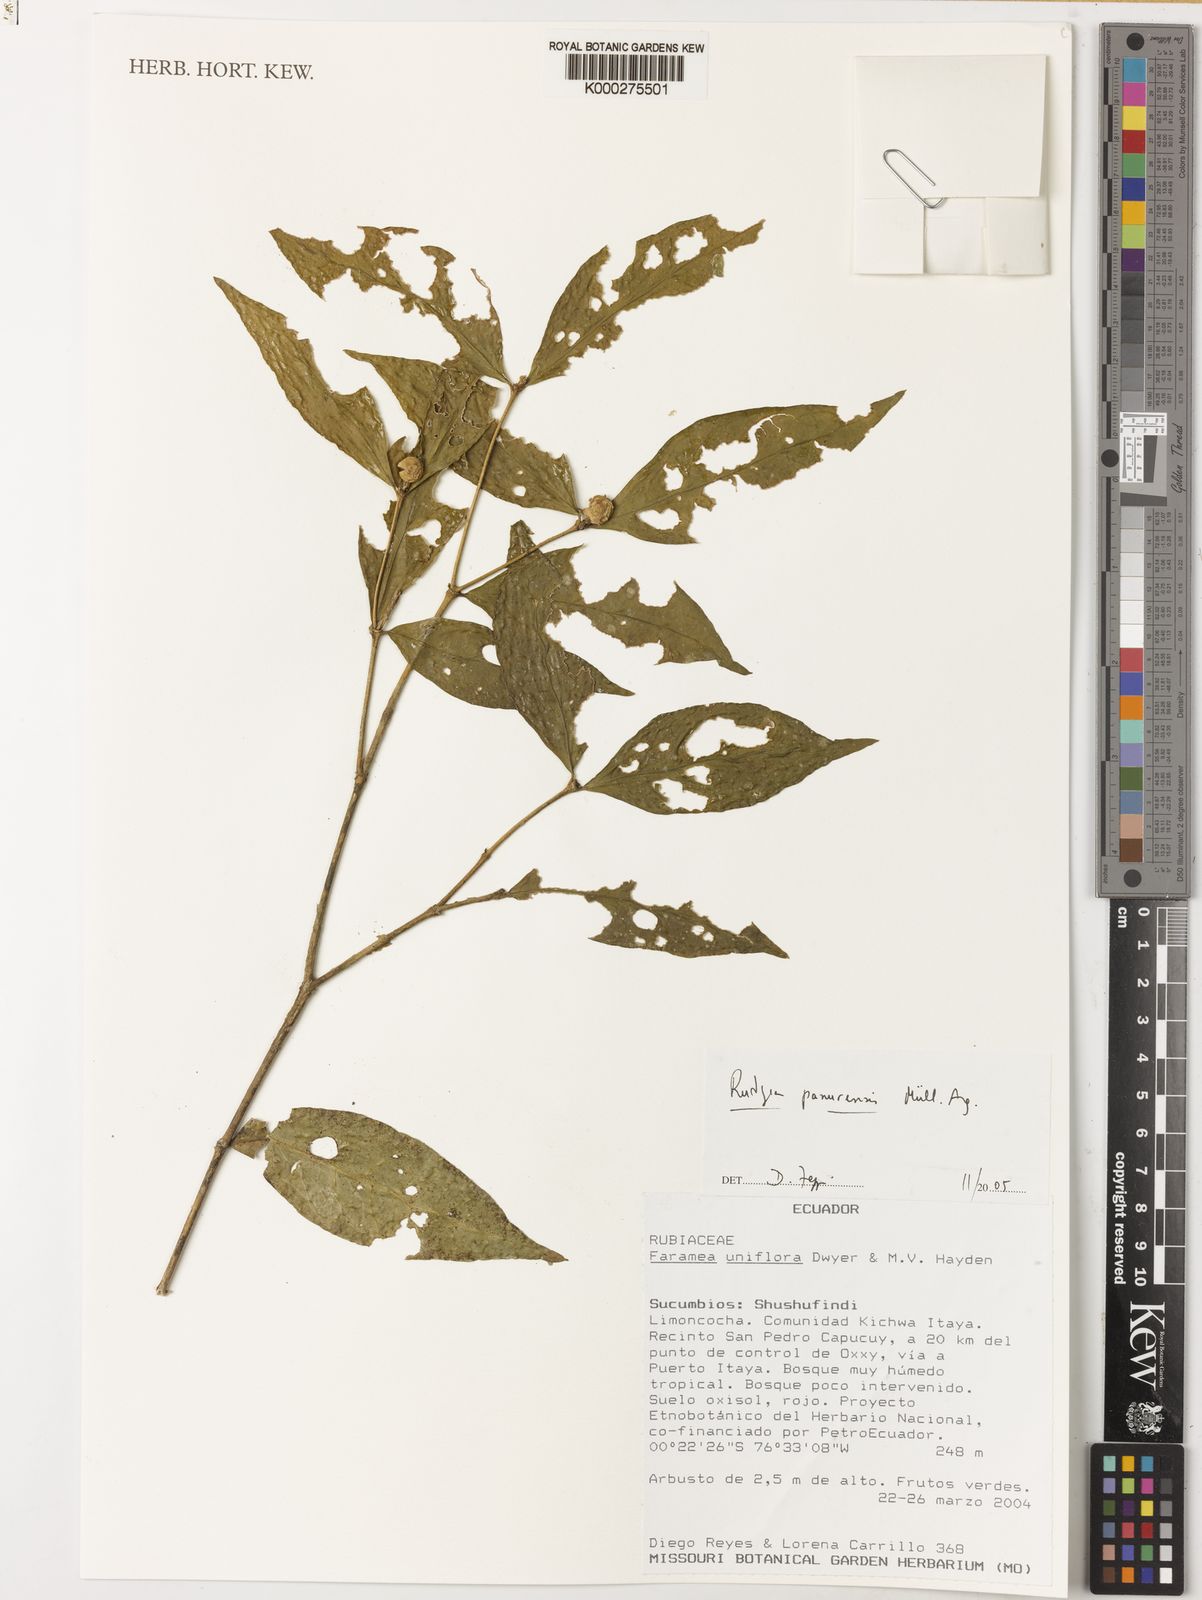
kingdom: Plantae
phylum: Tracheophyta
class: Magnoliopsida
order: Gentianales
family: Rubiaceae
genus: Rudgea
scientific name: Rudgea
